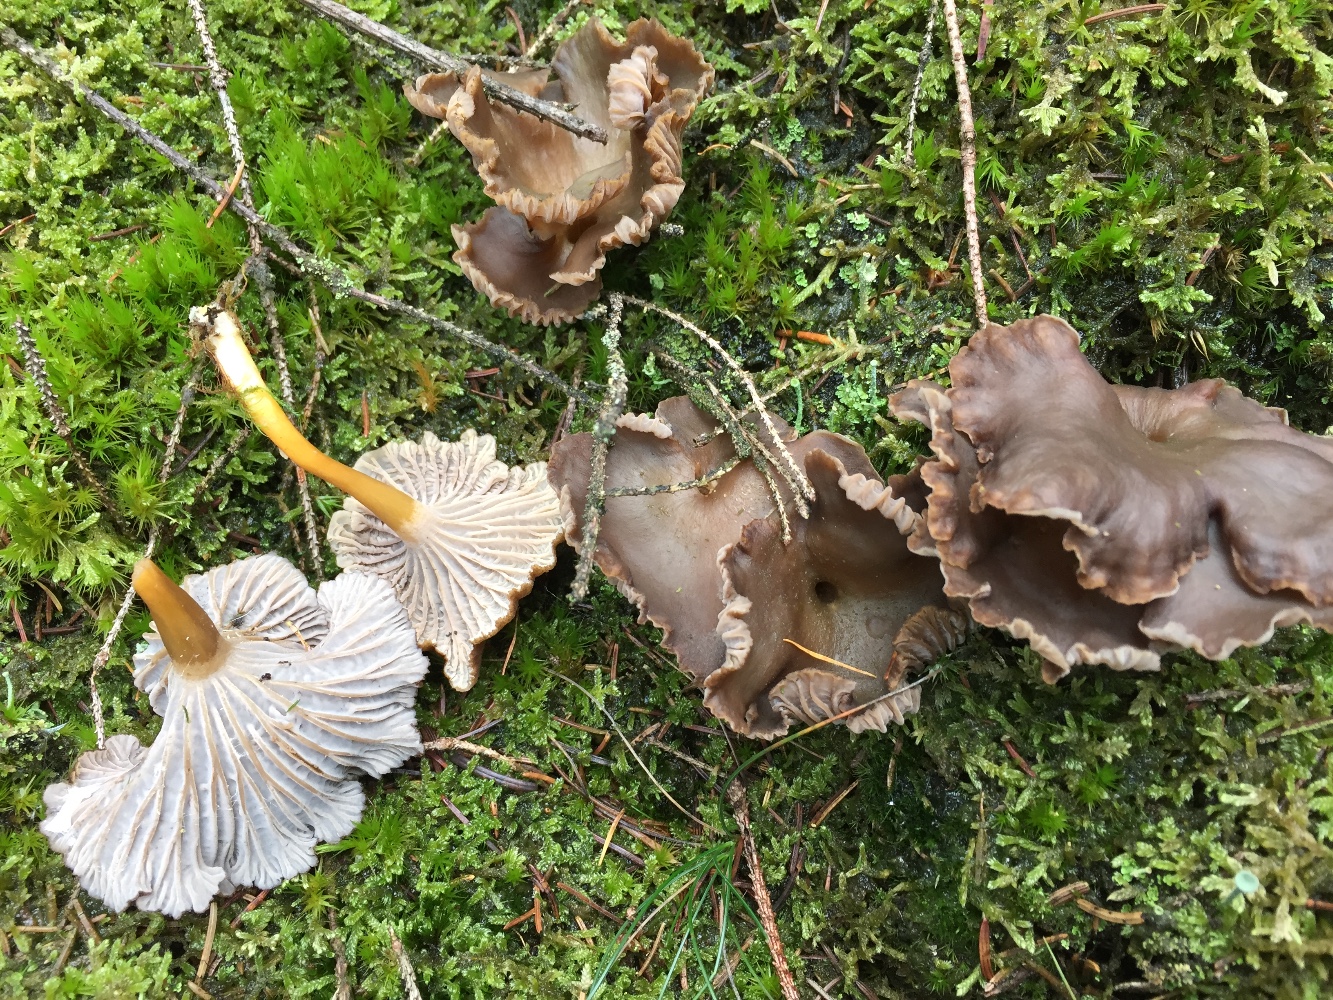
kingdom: Fungi
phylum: Basidiomycota
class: Agaricomycetes
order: Cantharellales
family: Hydnaceae
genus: Craterellus
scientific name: Craterellus tubaeformis
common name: tragt-kantarel
